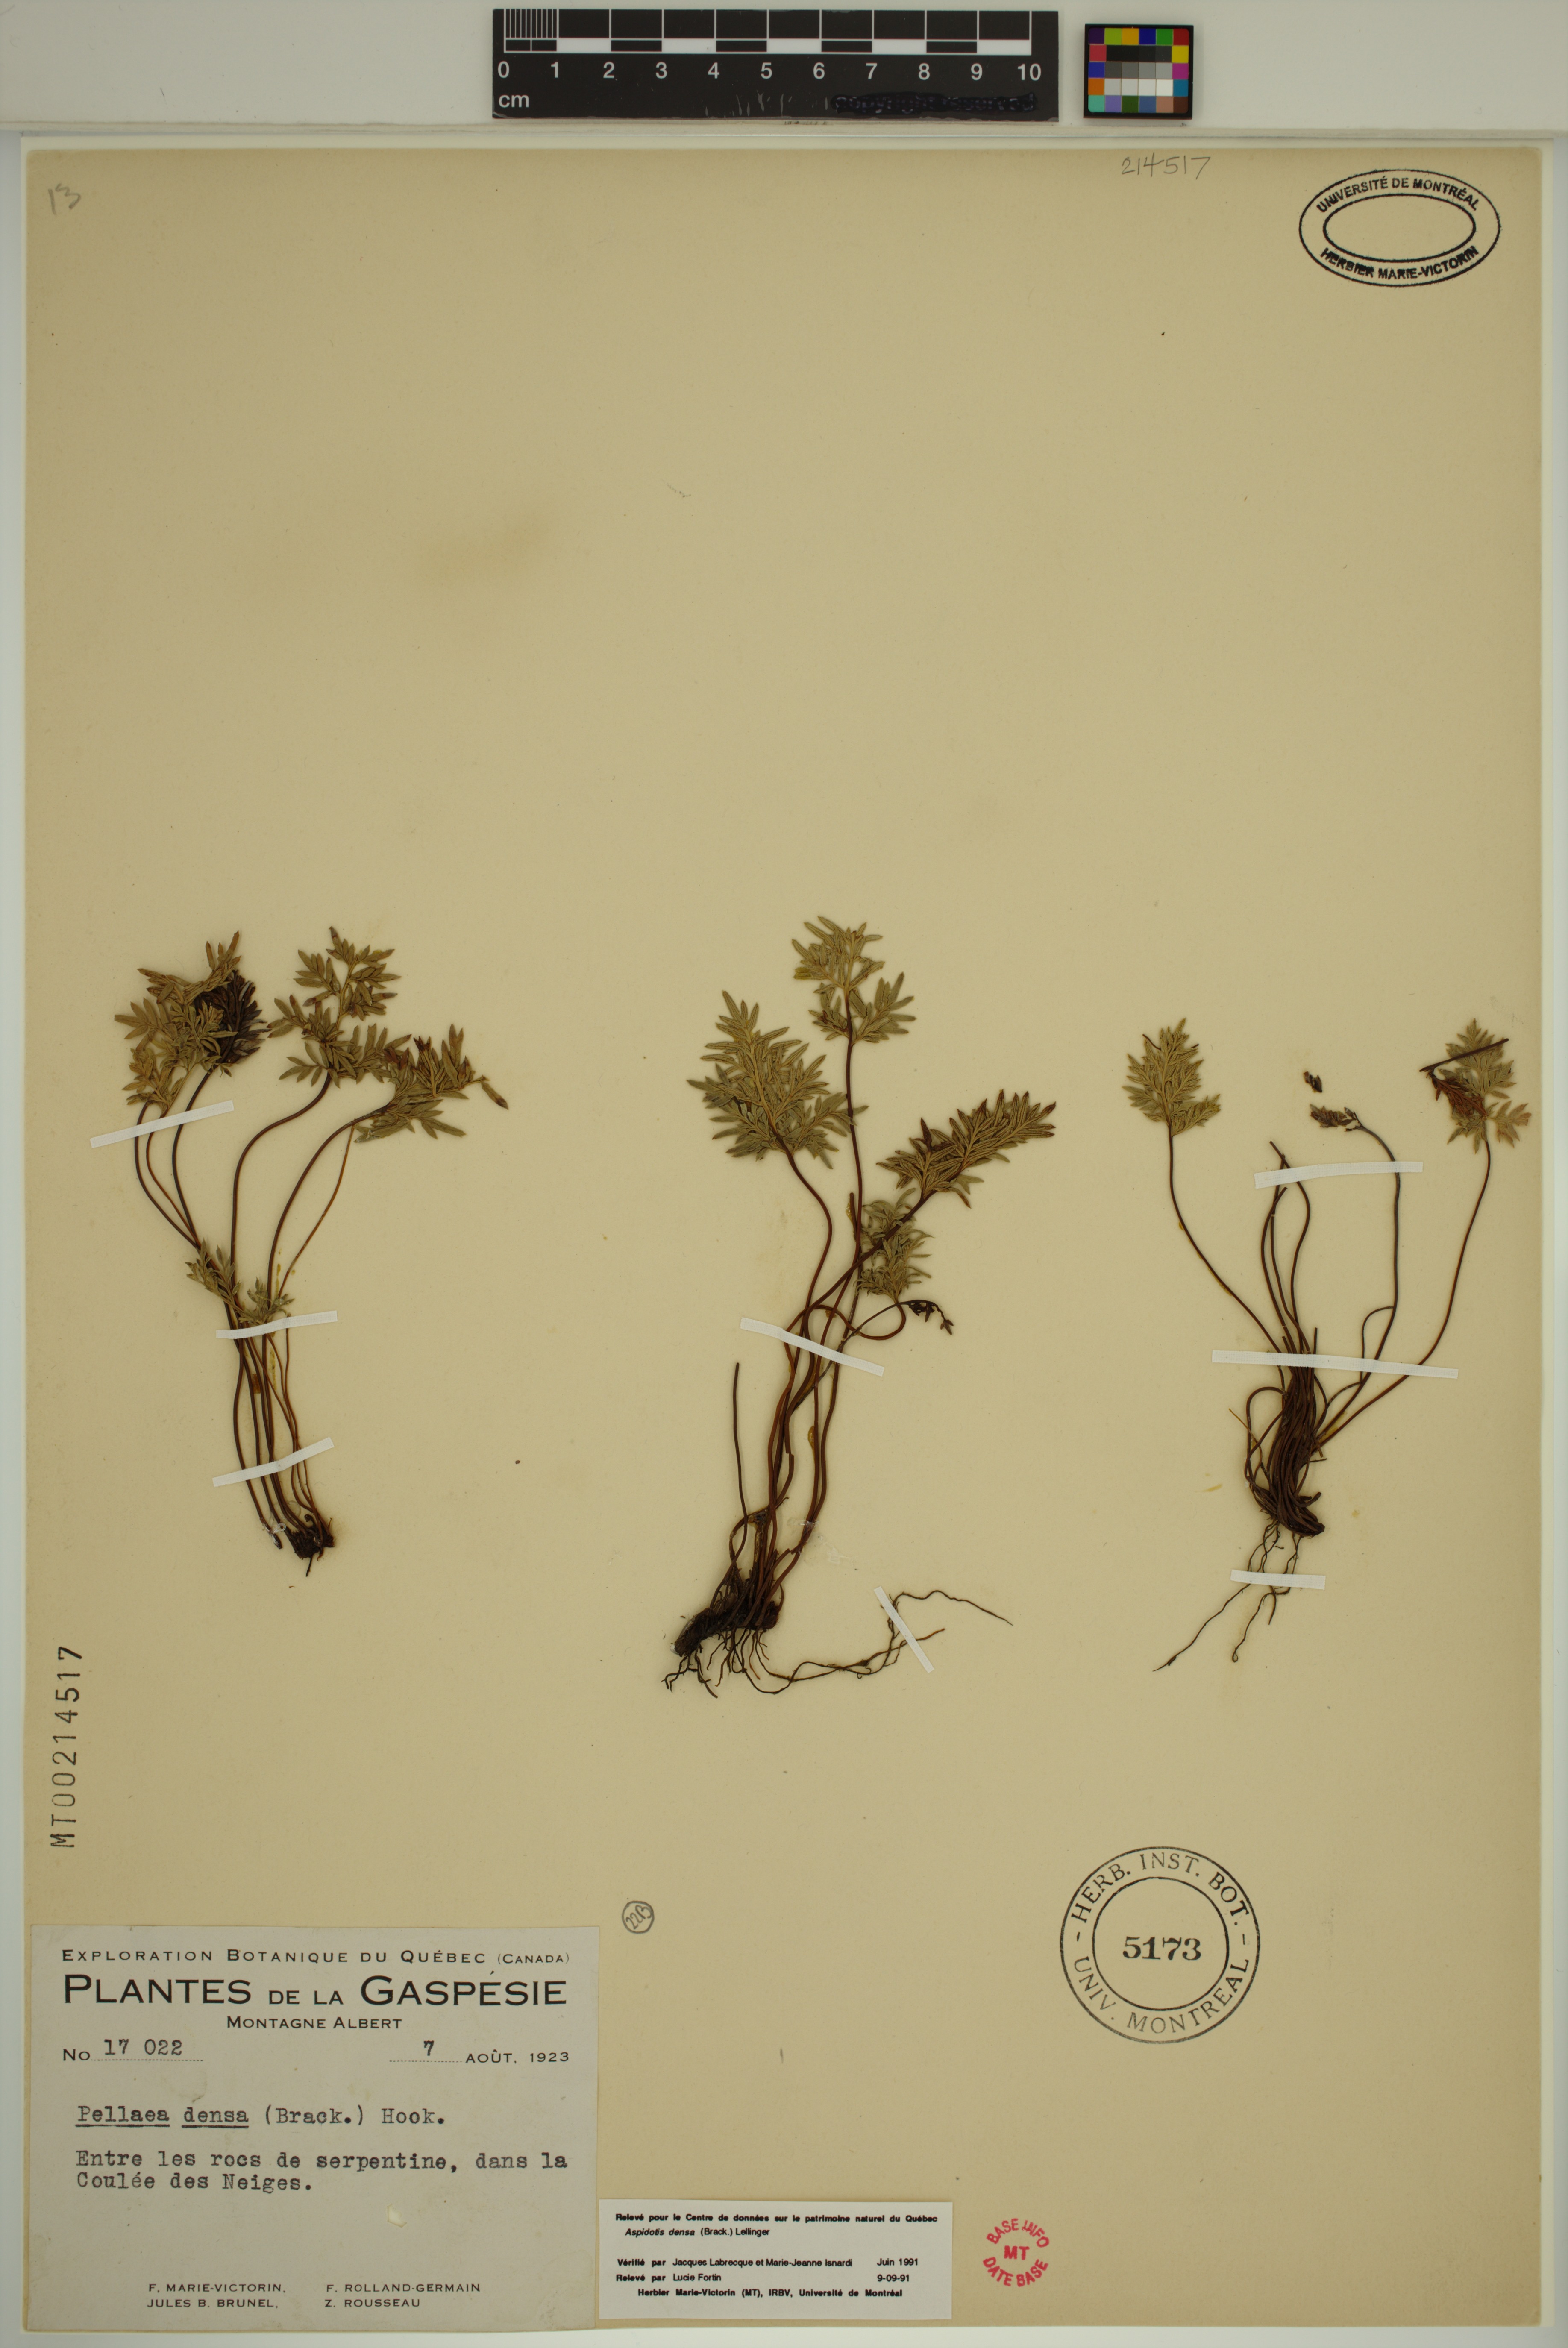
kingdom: Plantae
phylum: Tracheophyta
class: Polypodiopsida
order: Polypodiales
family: Pteridaceae
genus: Aspidotis
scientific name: Aspidotis densa
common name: Indian's dream
